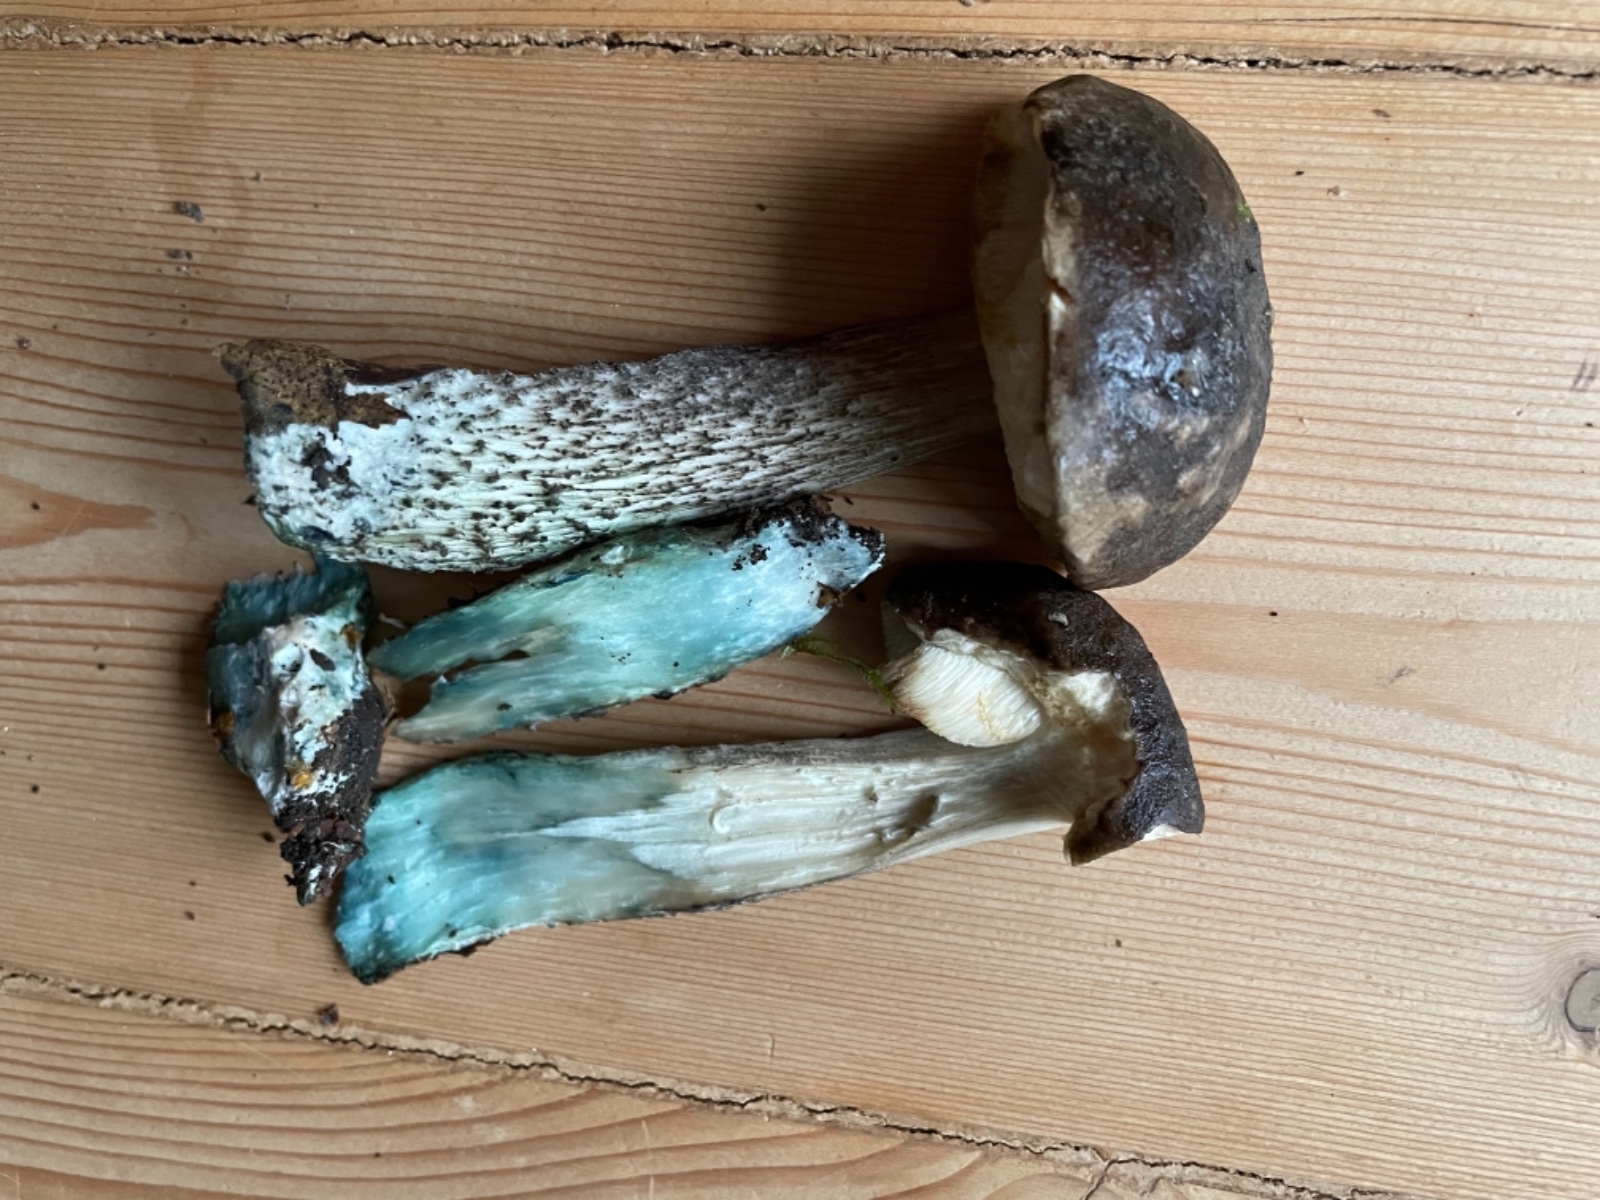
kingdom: Fungi
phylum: Basidiomycota
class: Agaricomycetes
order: Boletales
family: Boletaceae
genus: Leccinum
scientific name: Leccinum variicolor
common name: flammet skælrørhat
